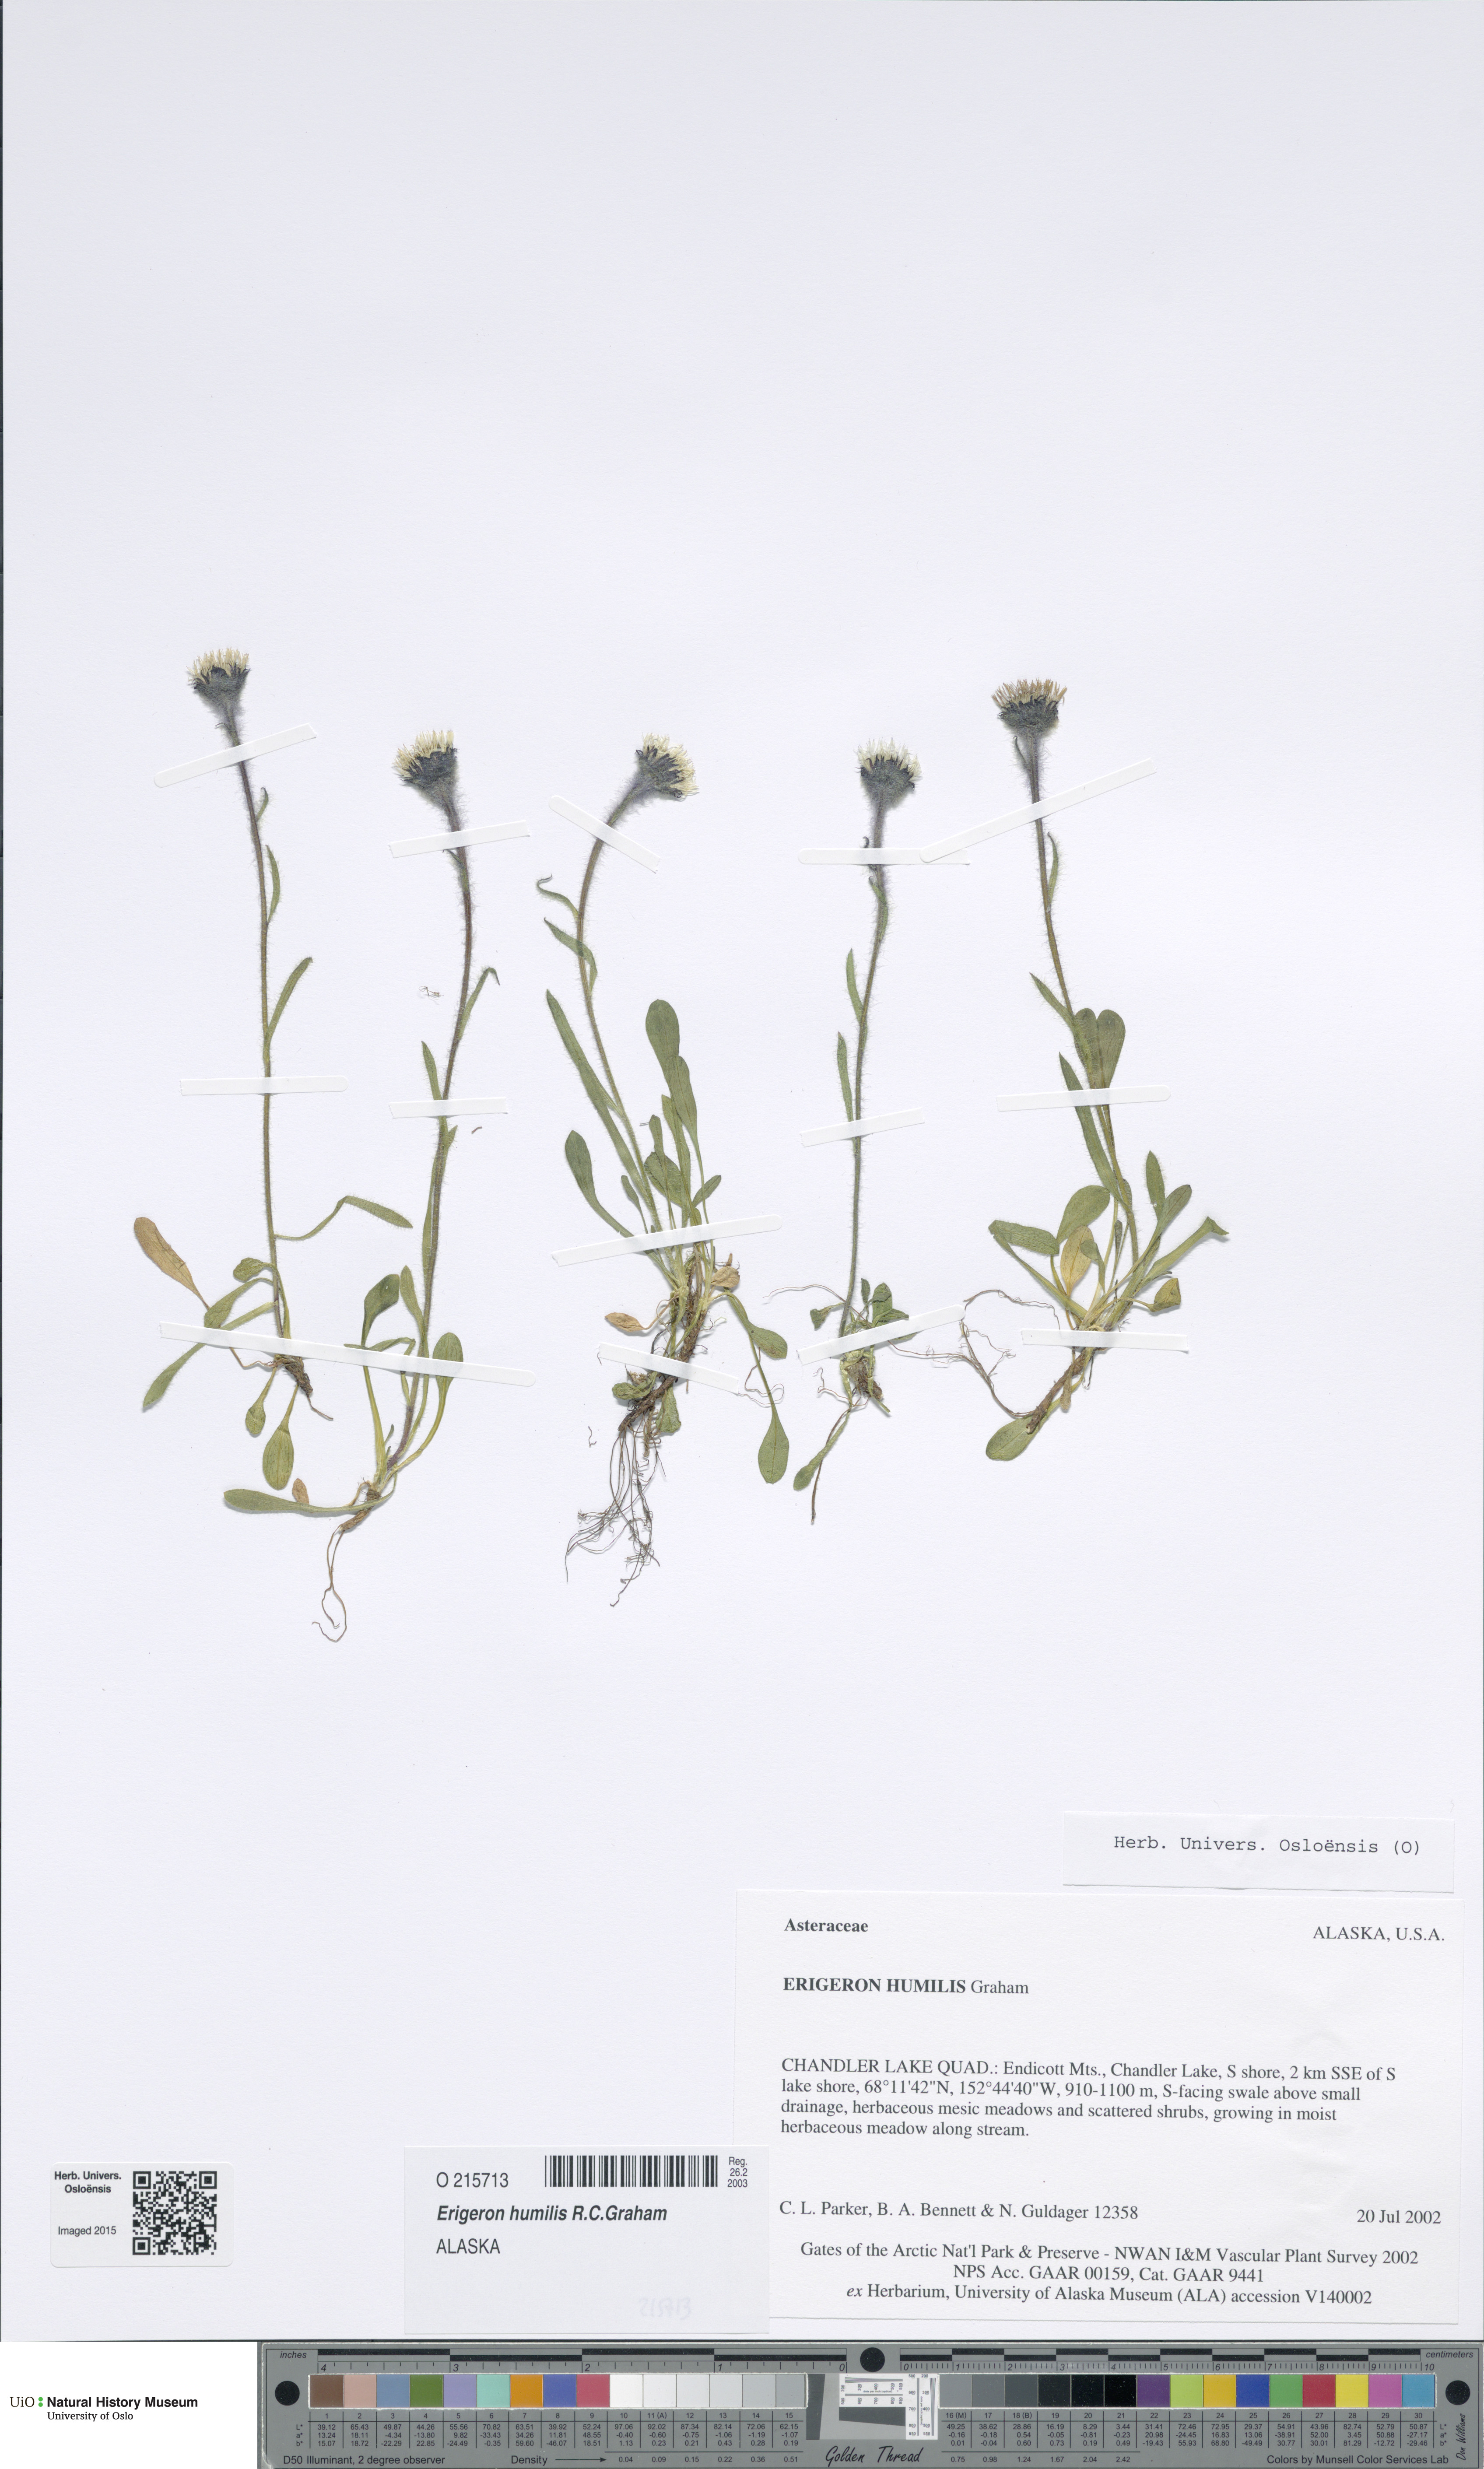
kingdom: Plantae
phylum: Tracheophyta
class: Magnoliopsida
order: Asterales
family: Asteraceae
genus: Erigeron
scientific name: Erigeron humilis
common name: Arctic-alpine fleabane
